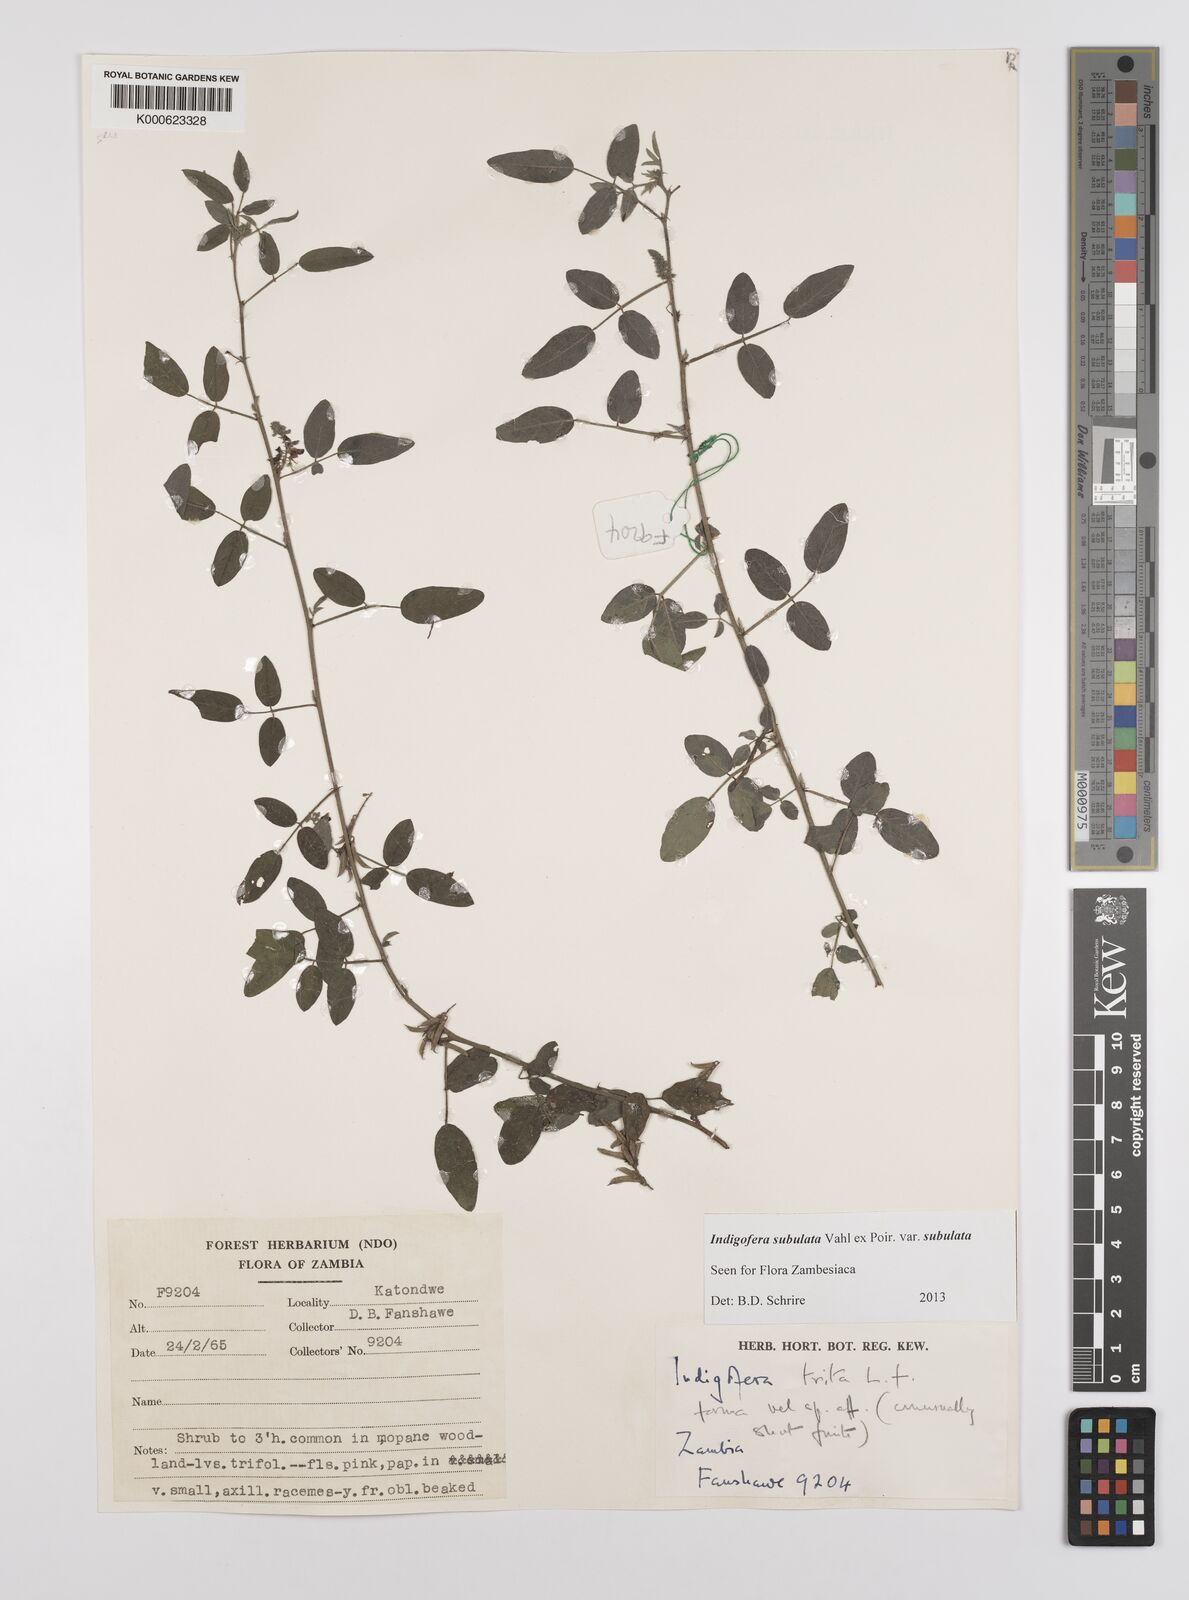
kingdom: Plantae
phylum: Tracheophyta
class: Magnoliopsida
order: Fabales
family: Fabaceae
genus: Indigofera
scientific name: Indigofera subulata
